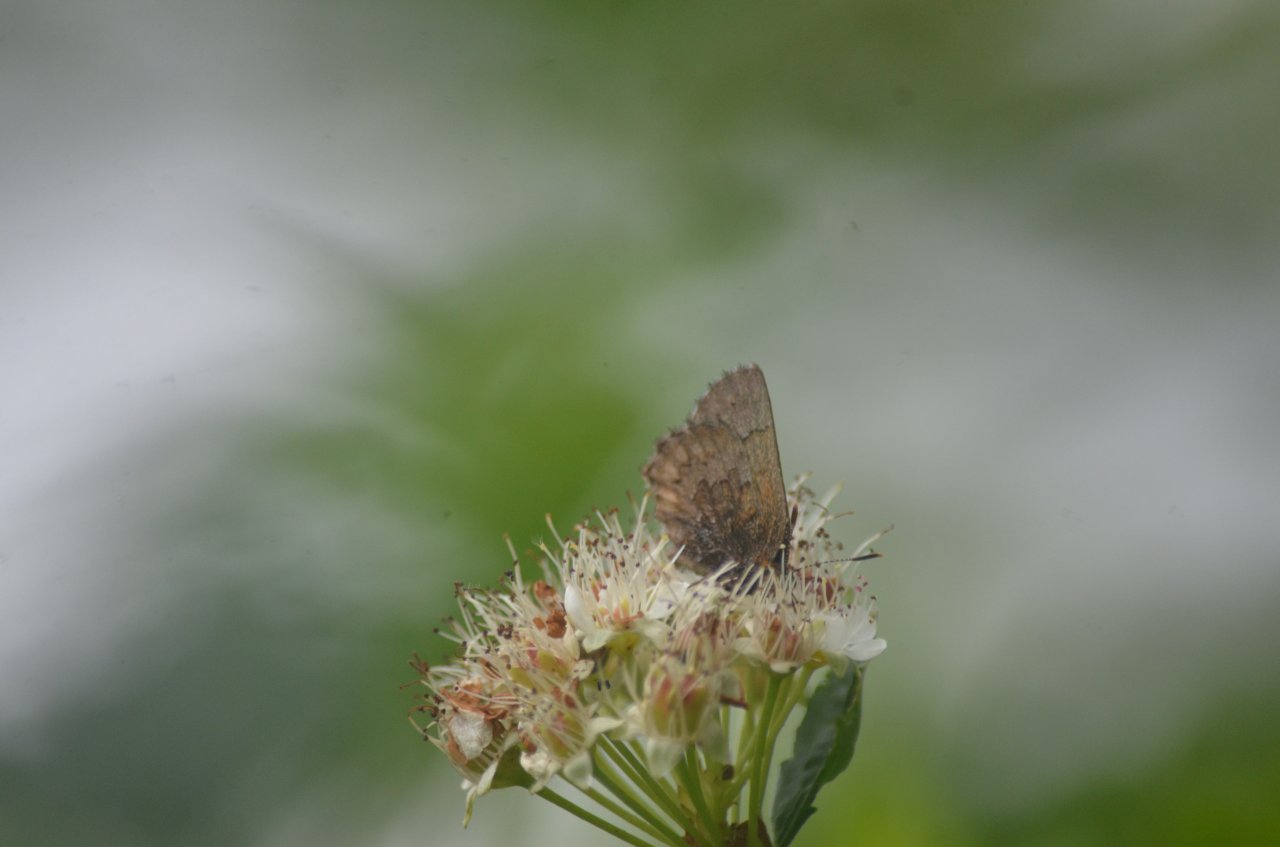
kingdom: Animalia
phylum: Arthropoda
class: Insecta
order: Lepidoptera
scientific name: Lepidoptera
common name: Butterflies
